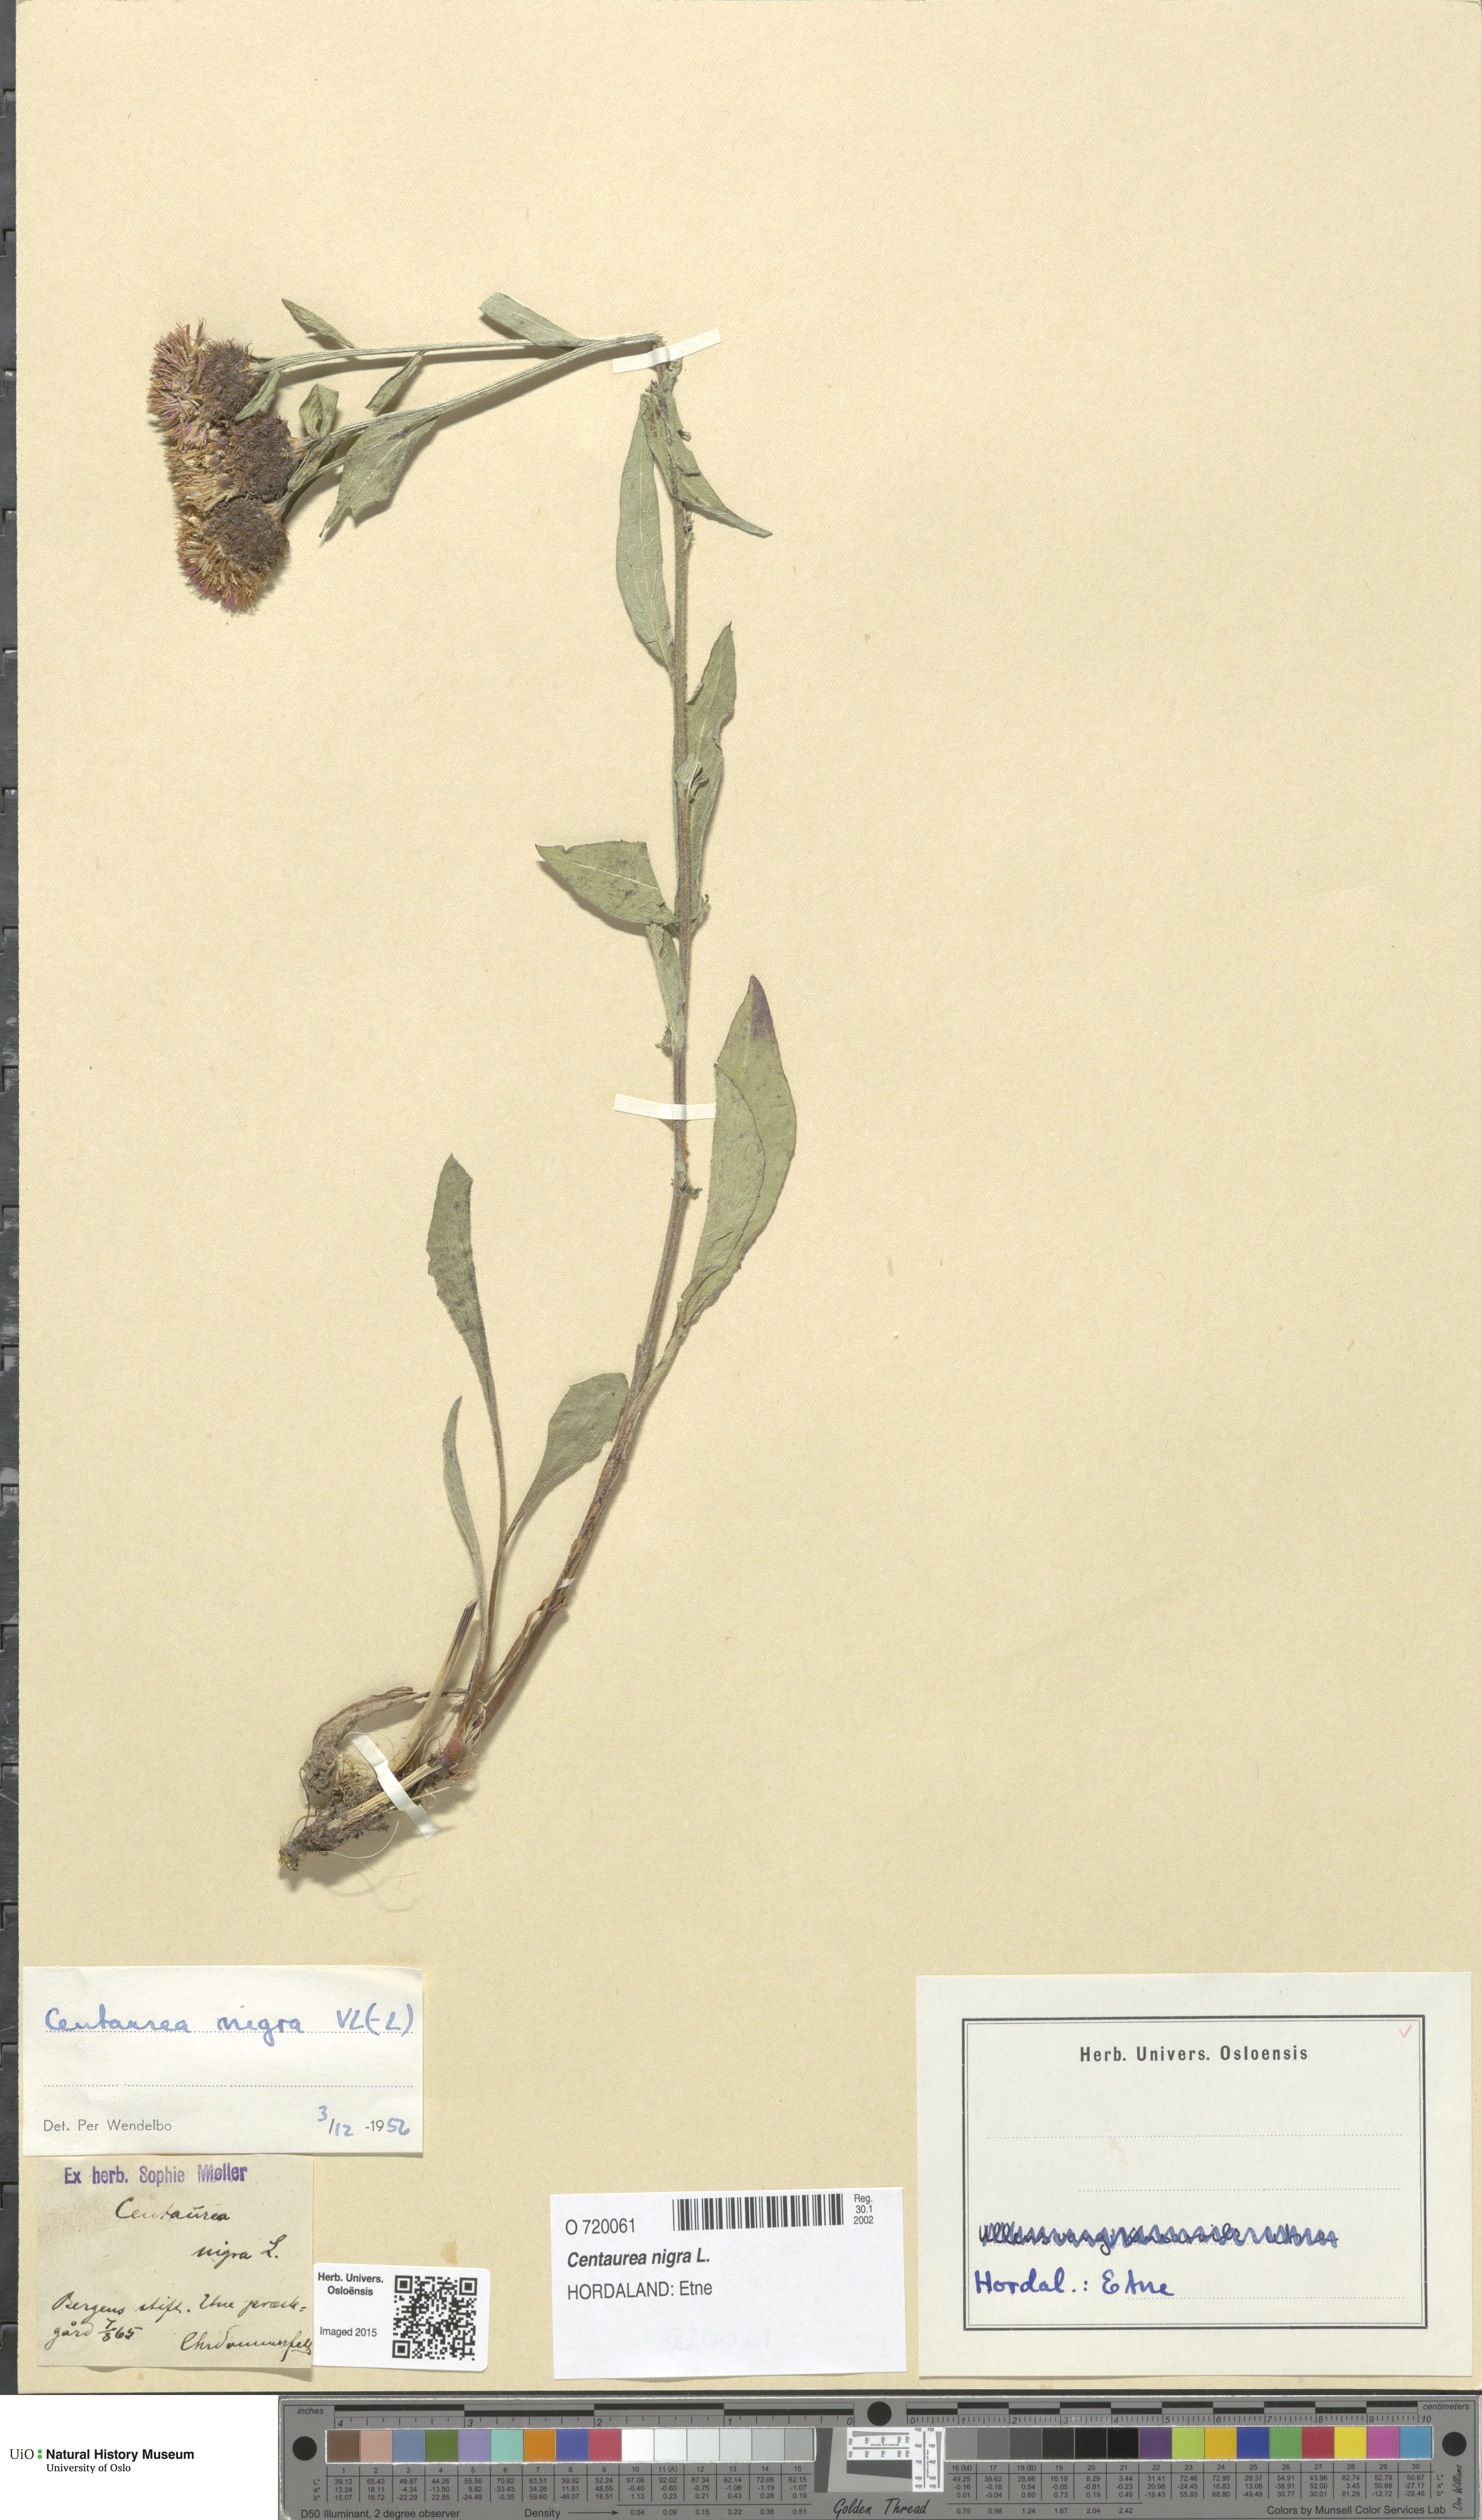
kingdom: Plantae
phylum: Tracheophyta
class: Magnoliopsida
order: Asterales
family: Asteraceae
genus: Centaurea
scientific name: Centaurea nigra
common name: Lesser knapweed
